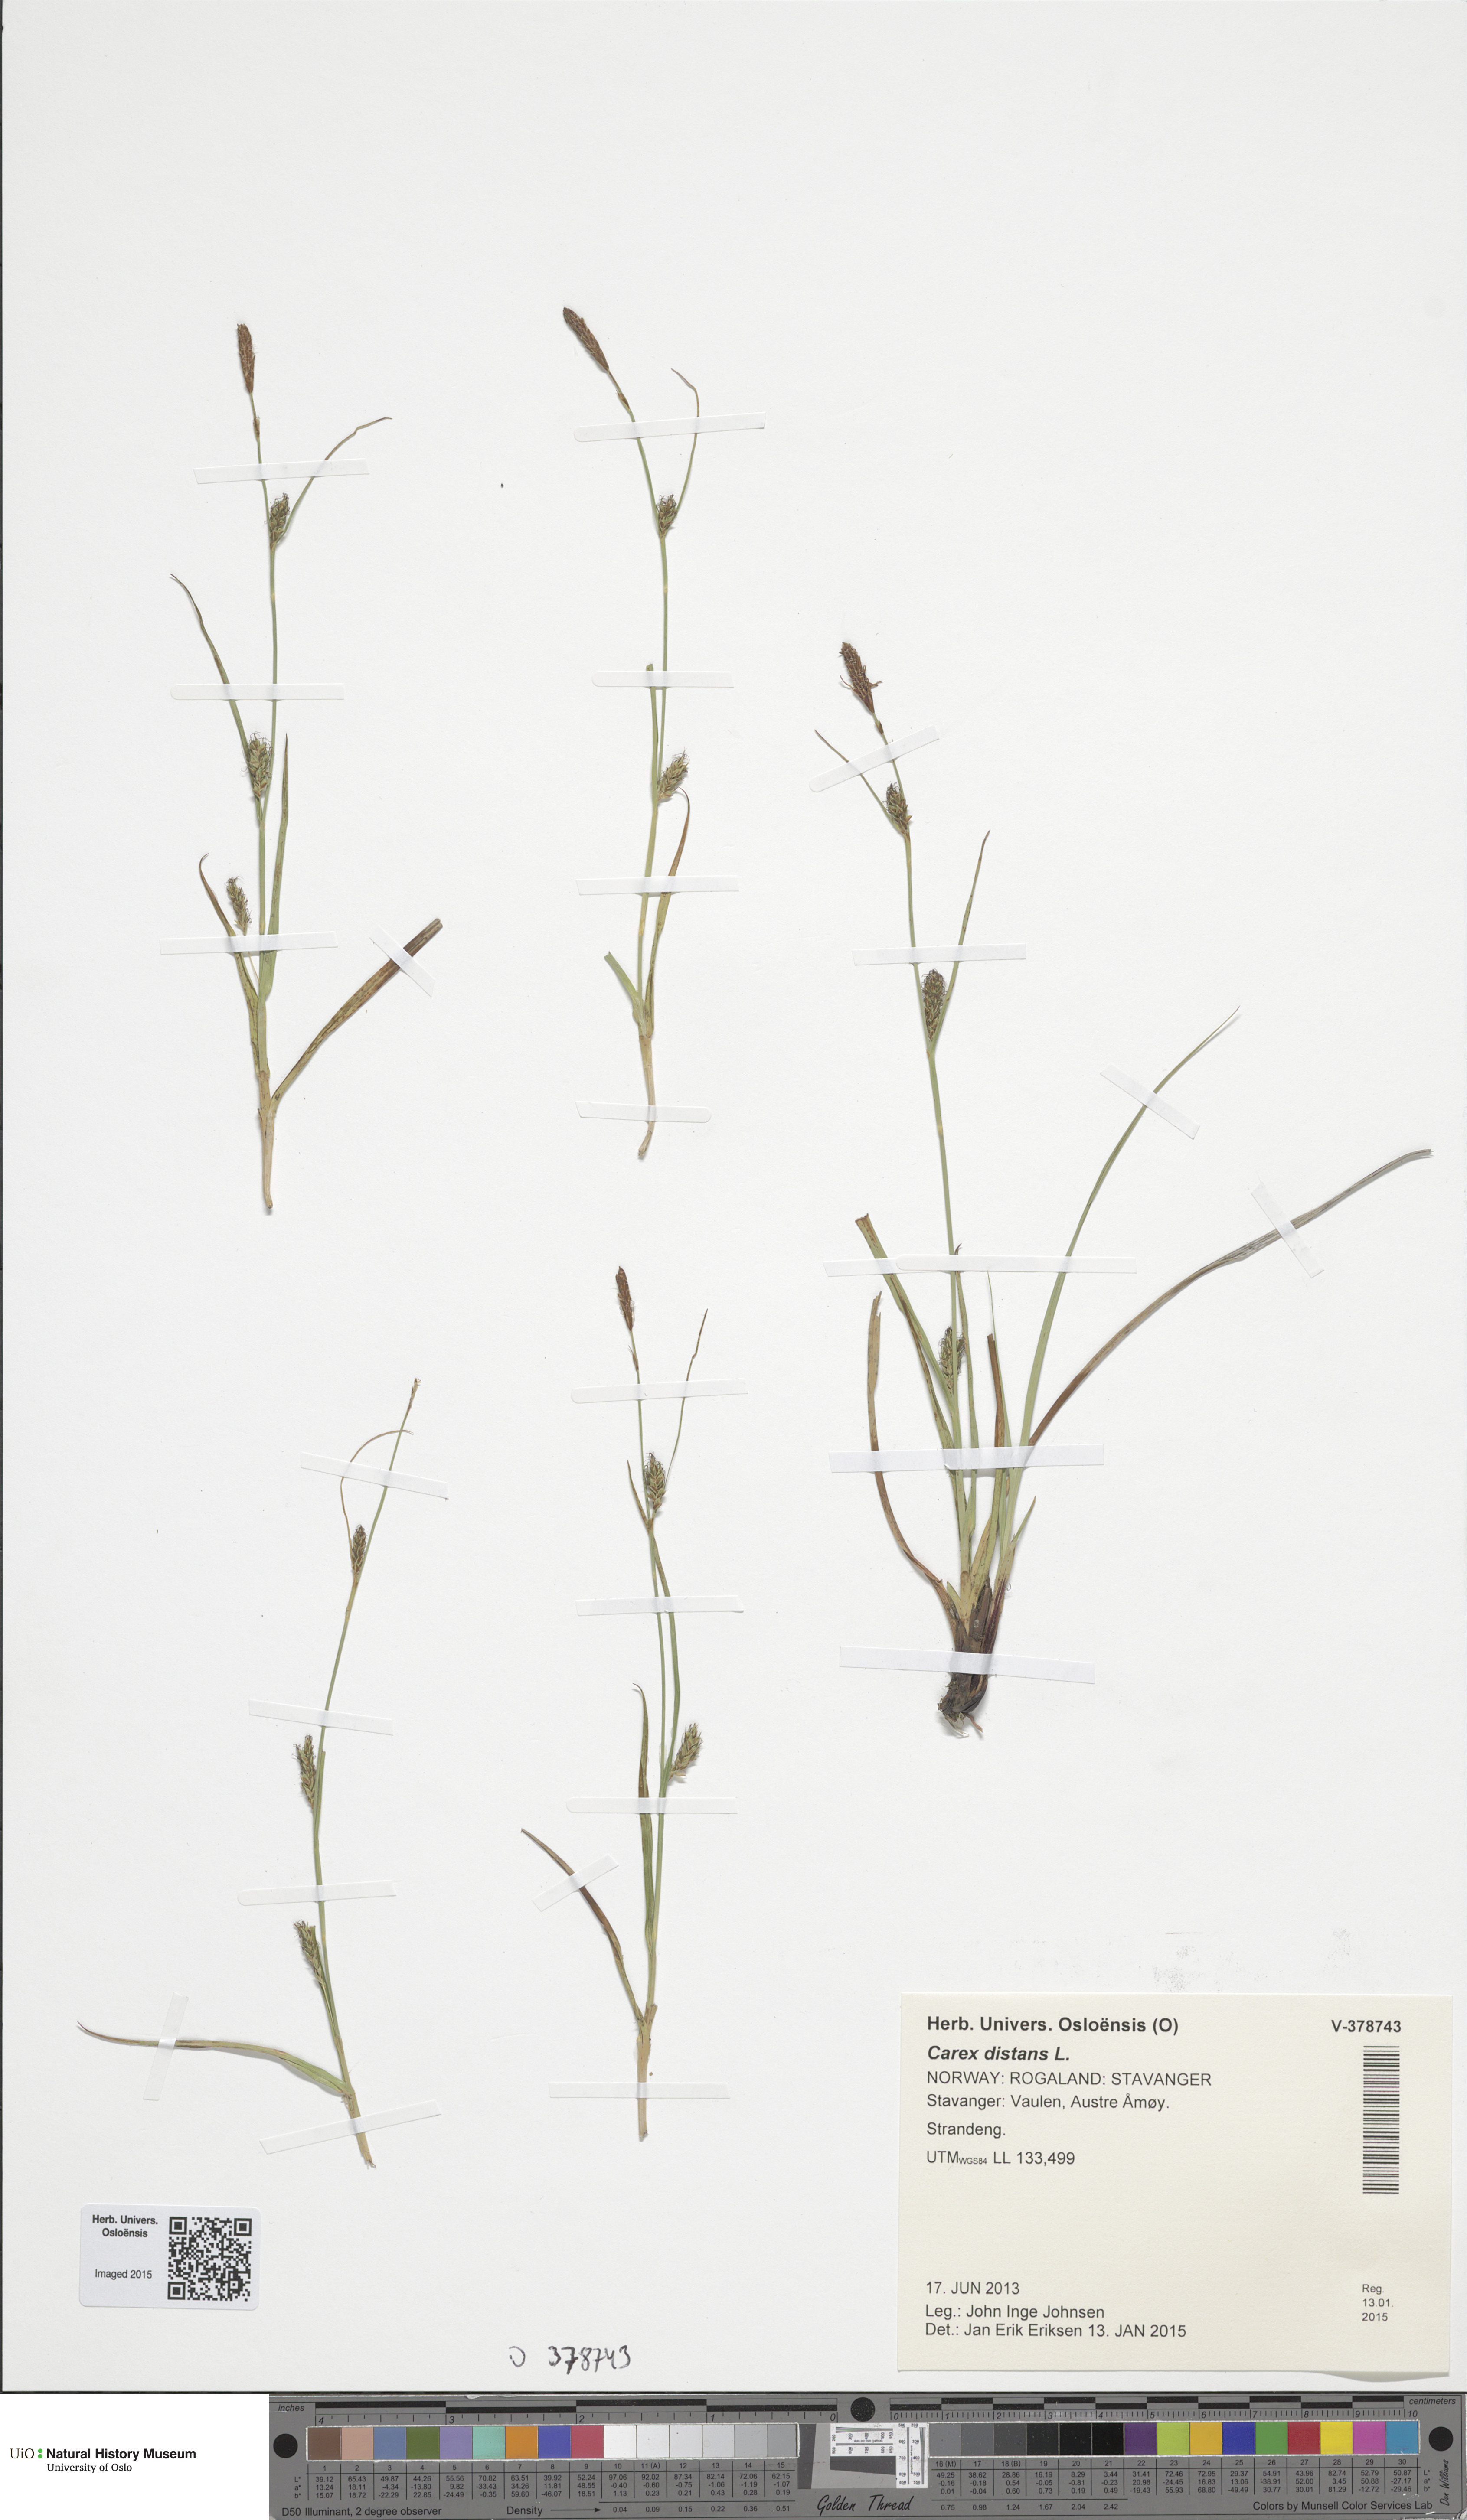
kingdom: Plantae
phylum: Tracheophyta
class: Liliopsida
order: Poales
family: Cyperaceae
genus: Carex
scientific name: Carex distans
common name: Distant sedge
